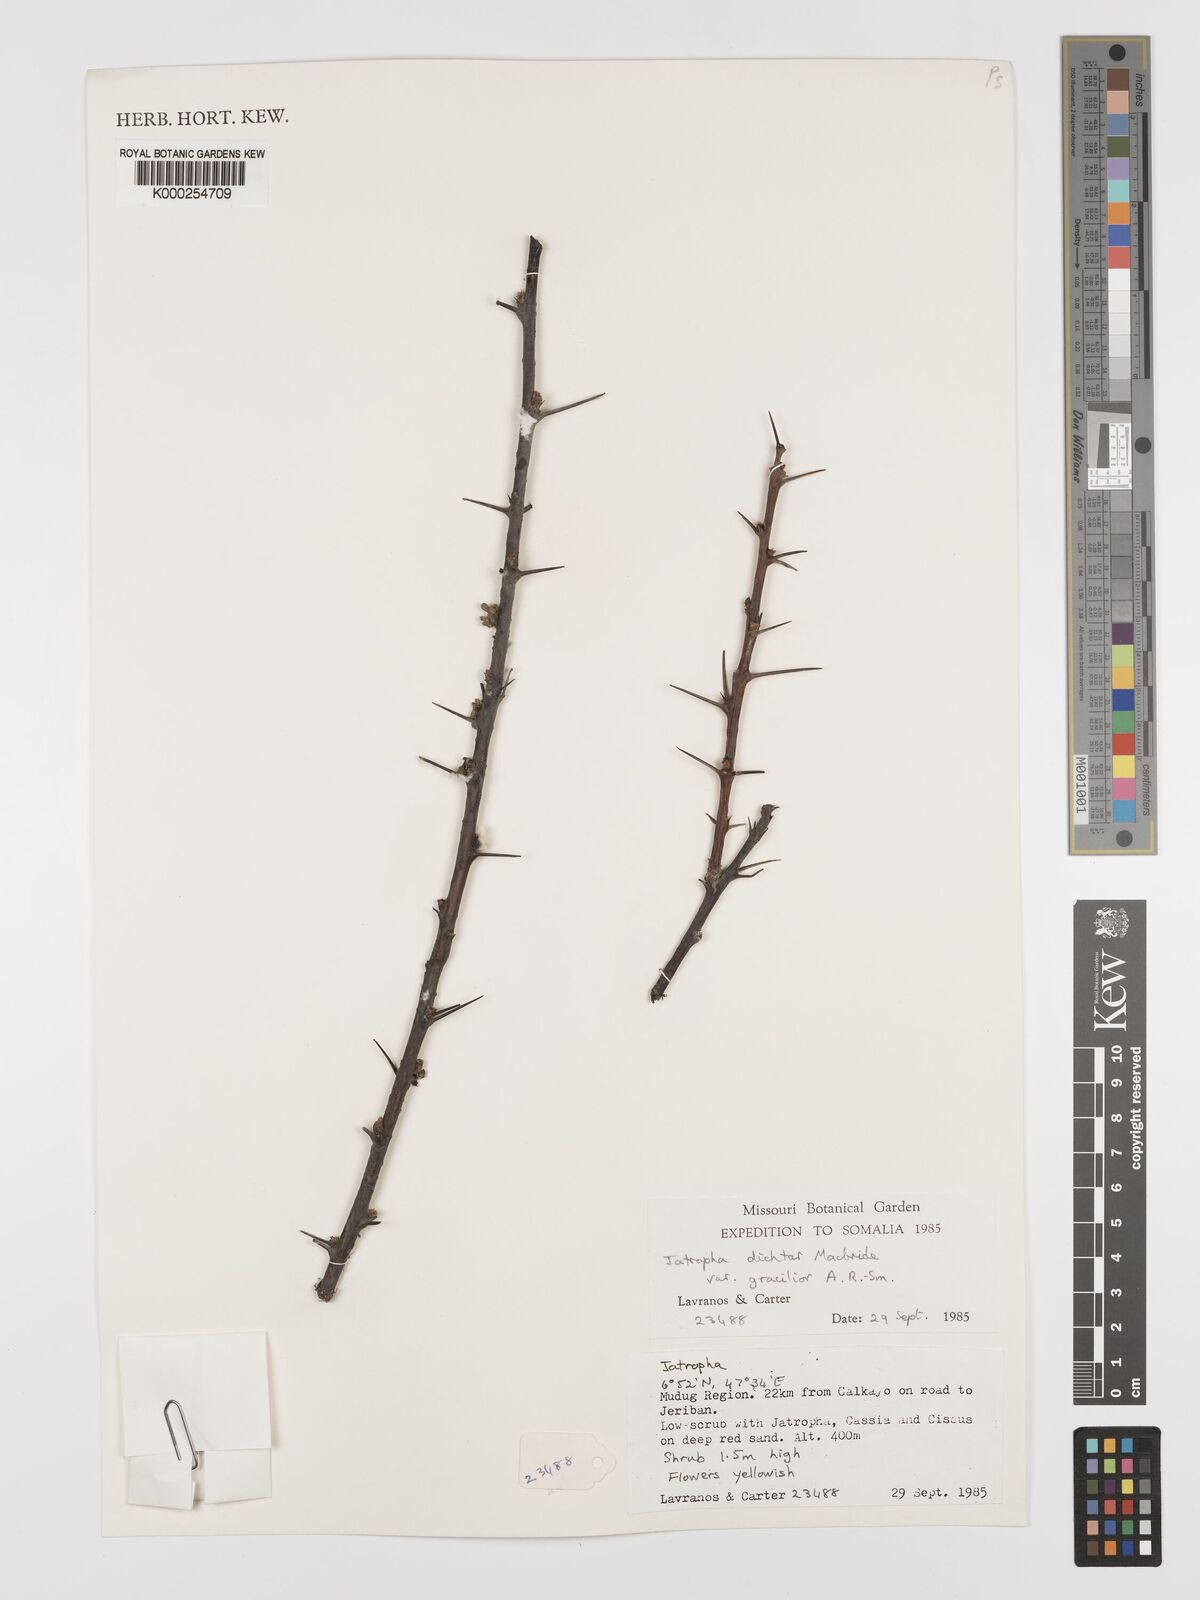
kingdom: Plantae
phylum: Tracheophyta
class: Magnoliopsida
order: Malpighiales
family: Euphorbiaceae
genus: Jatropha
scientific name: Jatropha dichtar
